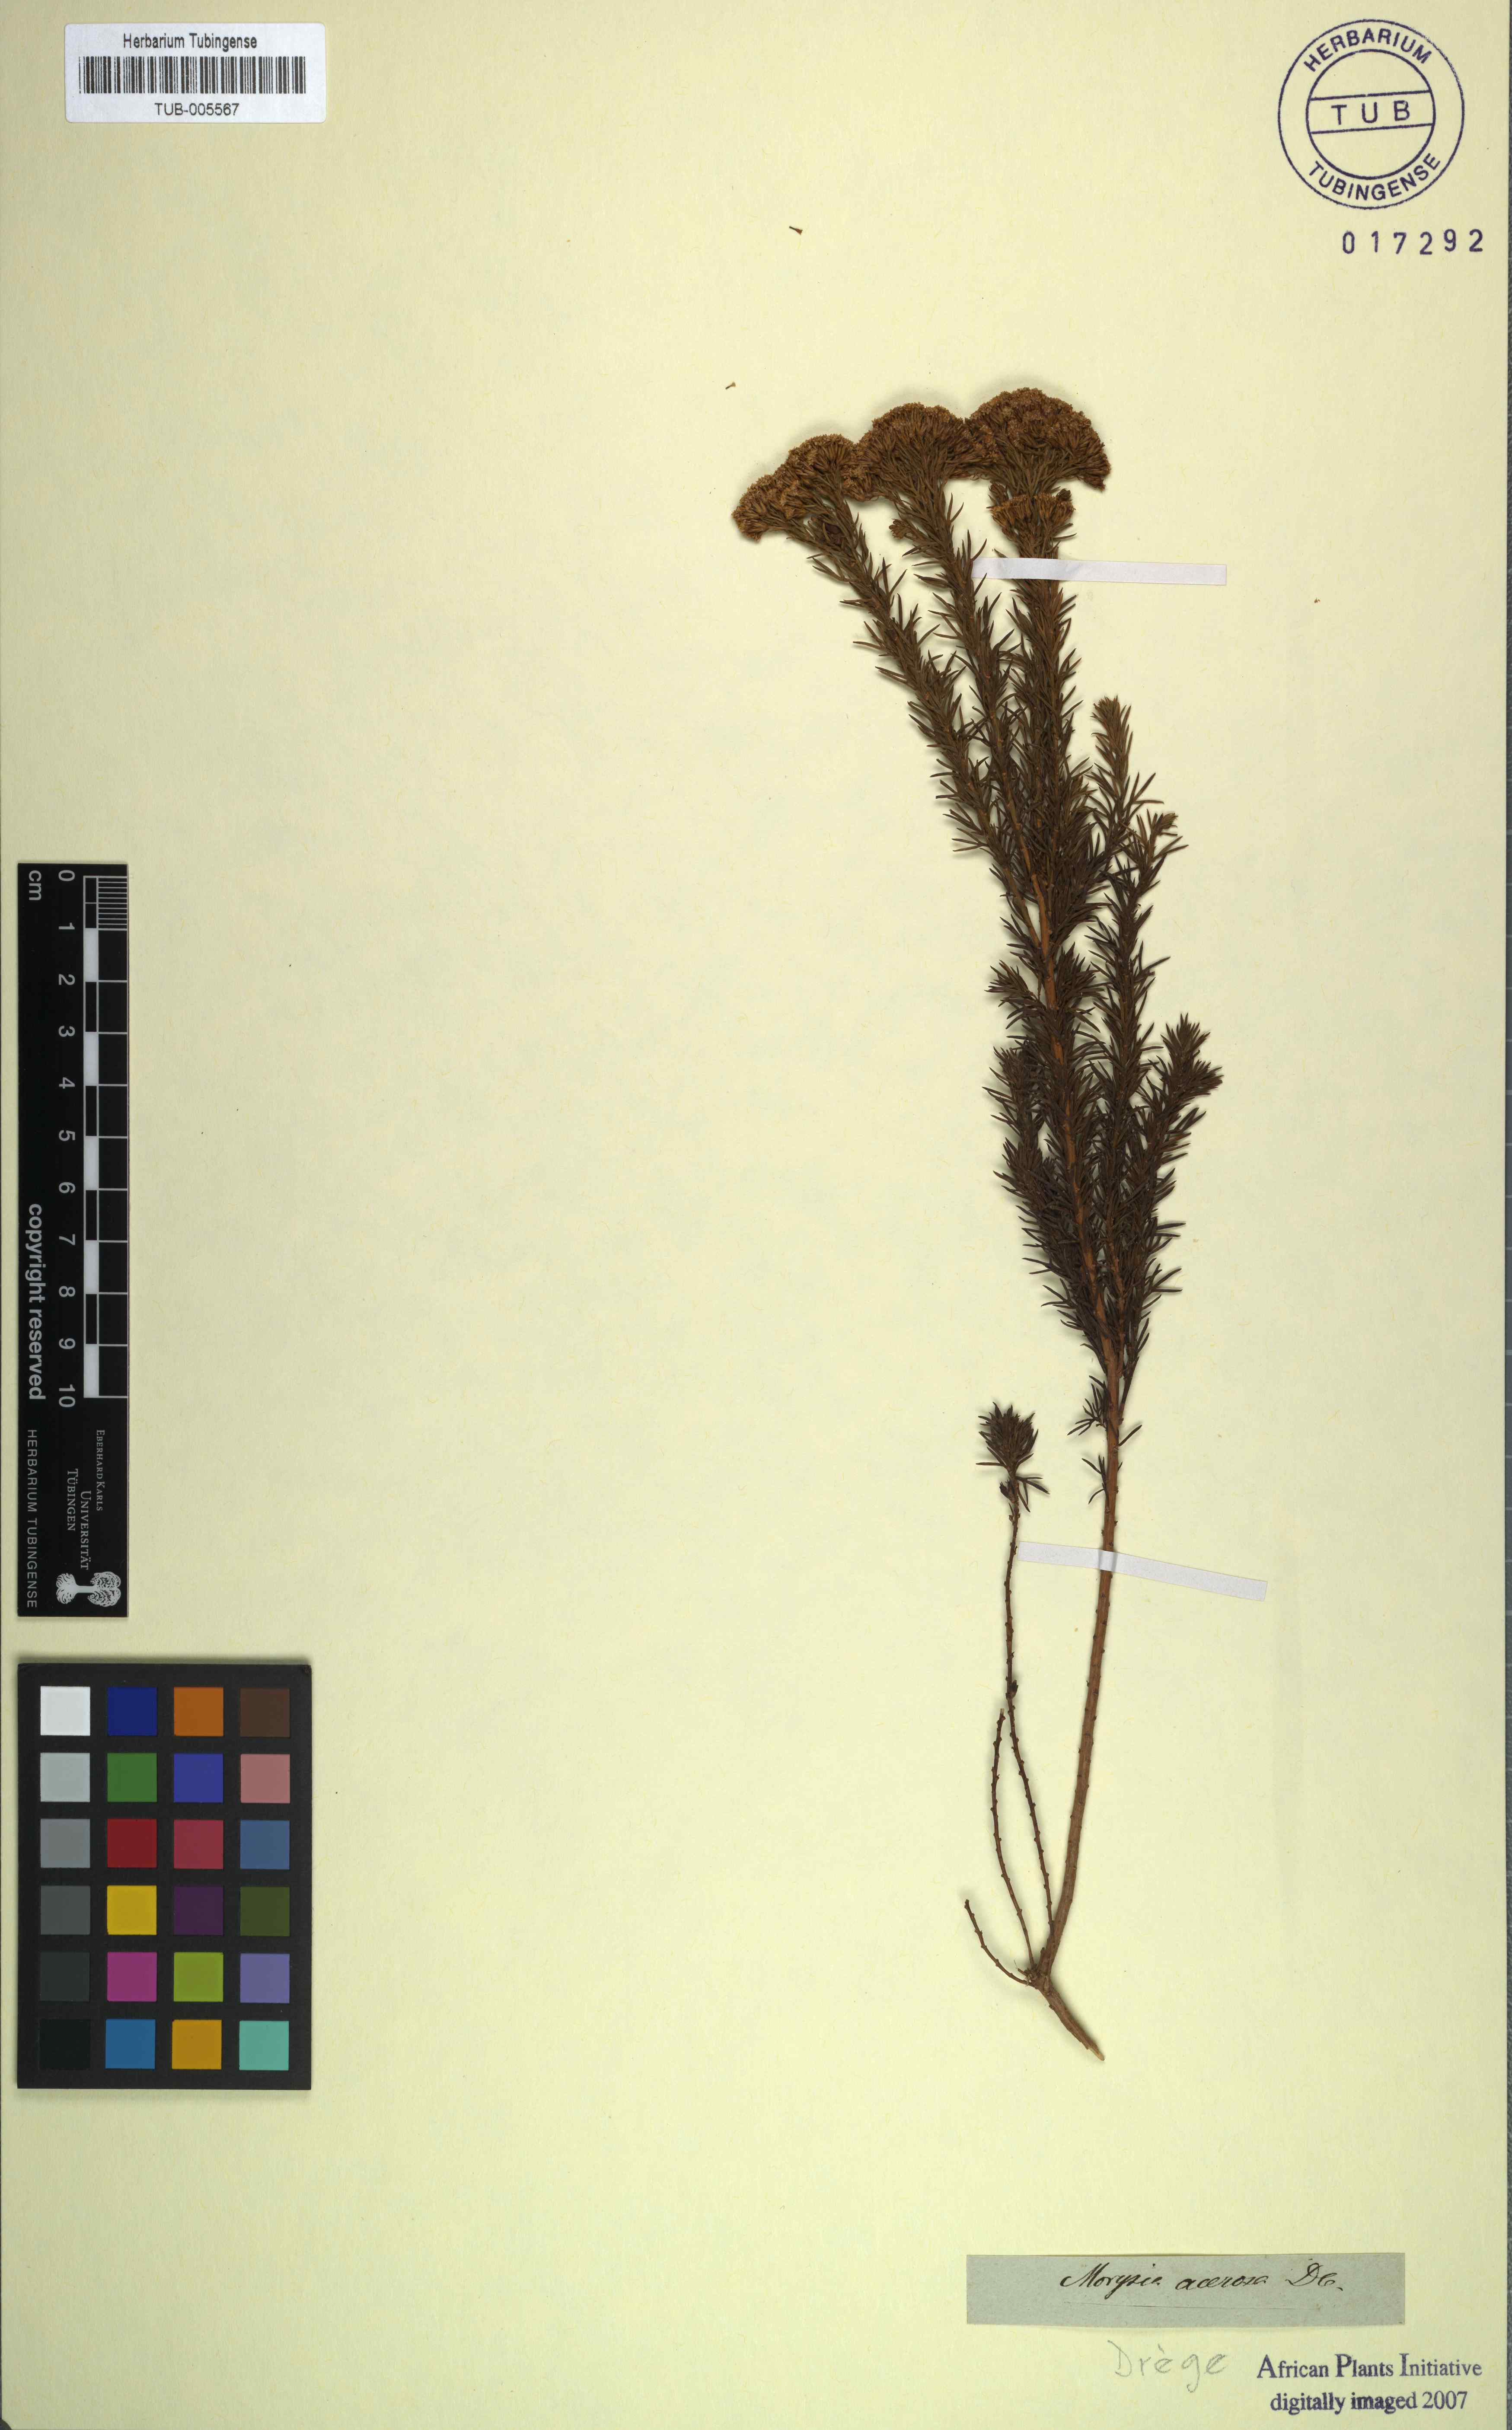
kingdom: Plantae
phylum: Tracheophyta
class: Magnoliopsida
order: Asterales
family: Asteraceae
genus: Phymaspermum
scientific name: Phymaspermum acerosum
